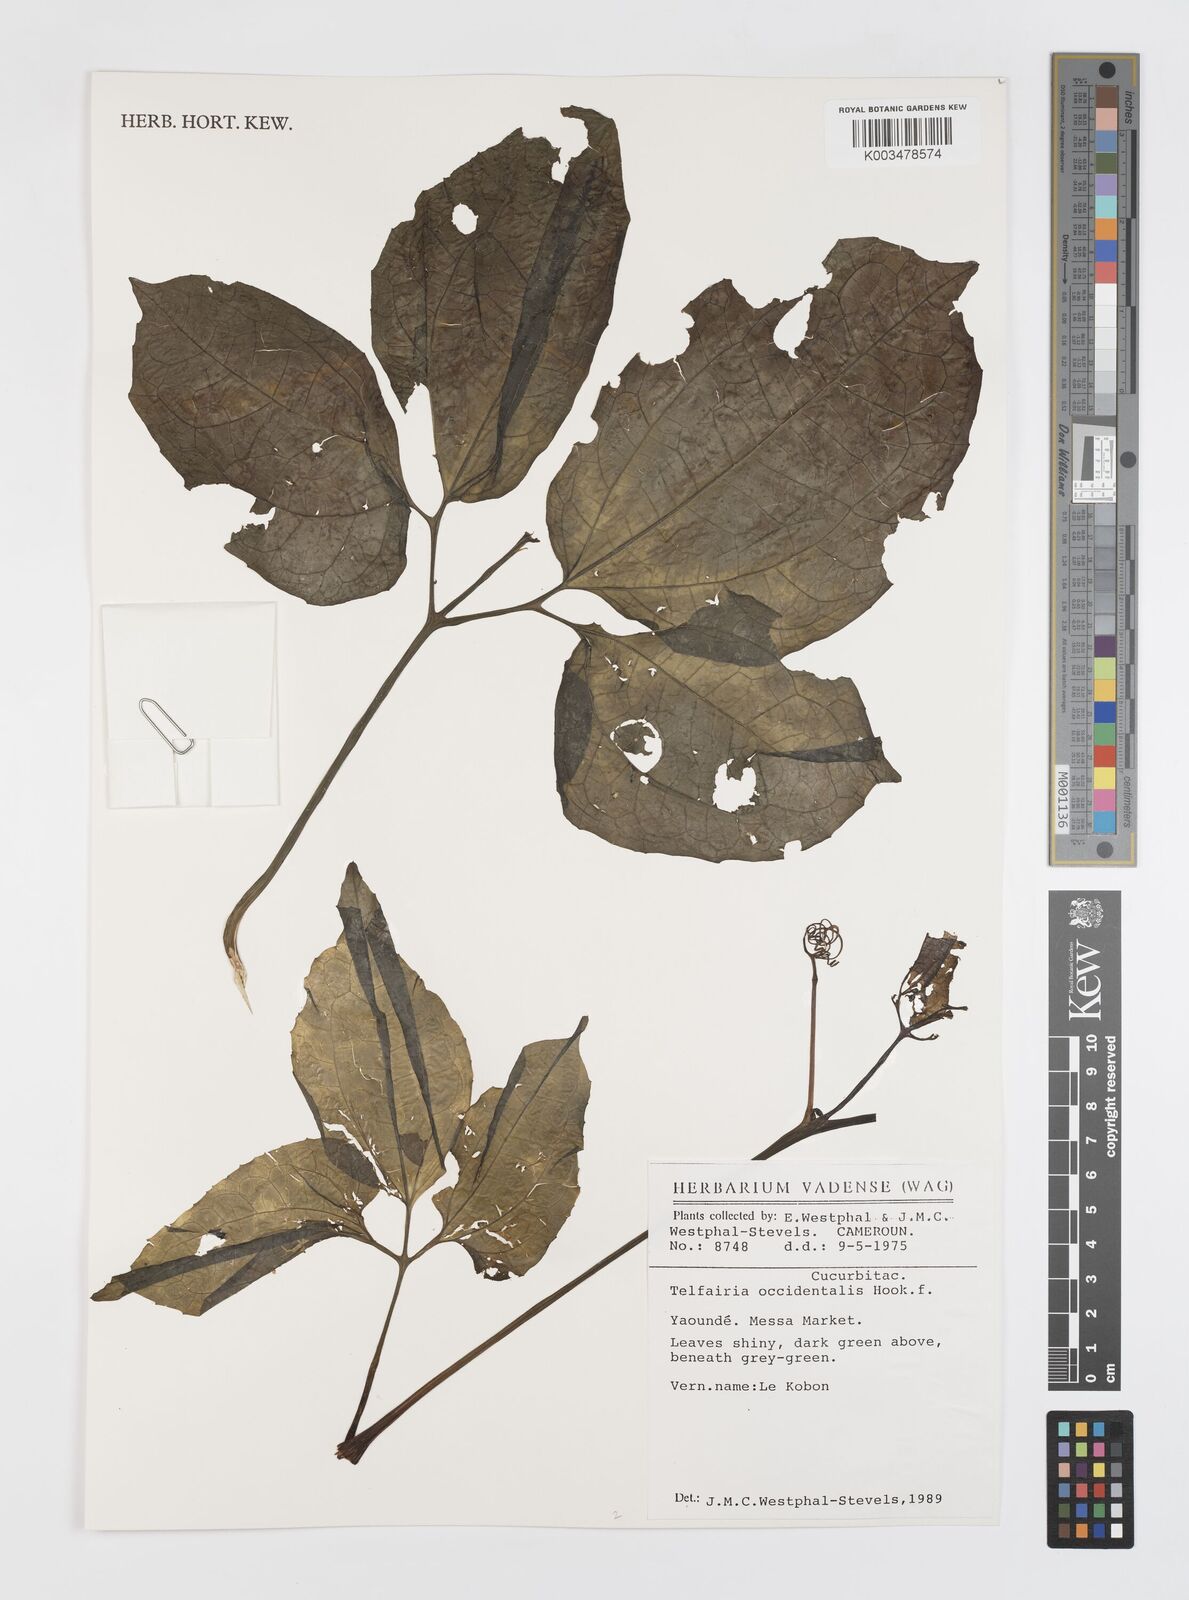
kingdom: Plantae
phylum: Tracheophyta
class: Magnoliopsida
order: Cucurbitales
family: Cucurbitaceae
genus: Telfairia
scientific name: Telfairia occidentalis
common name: Oysternut
